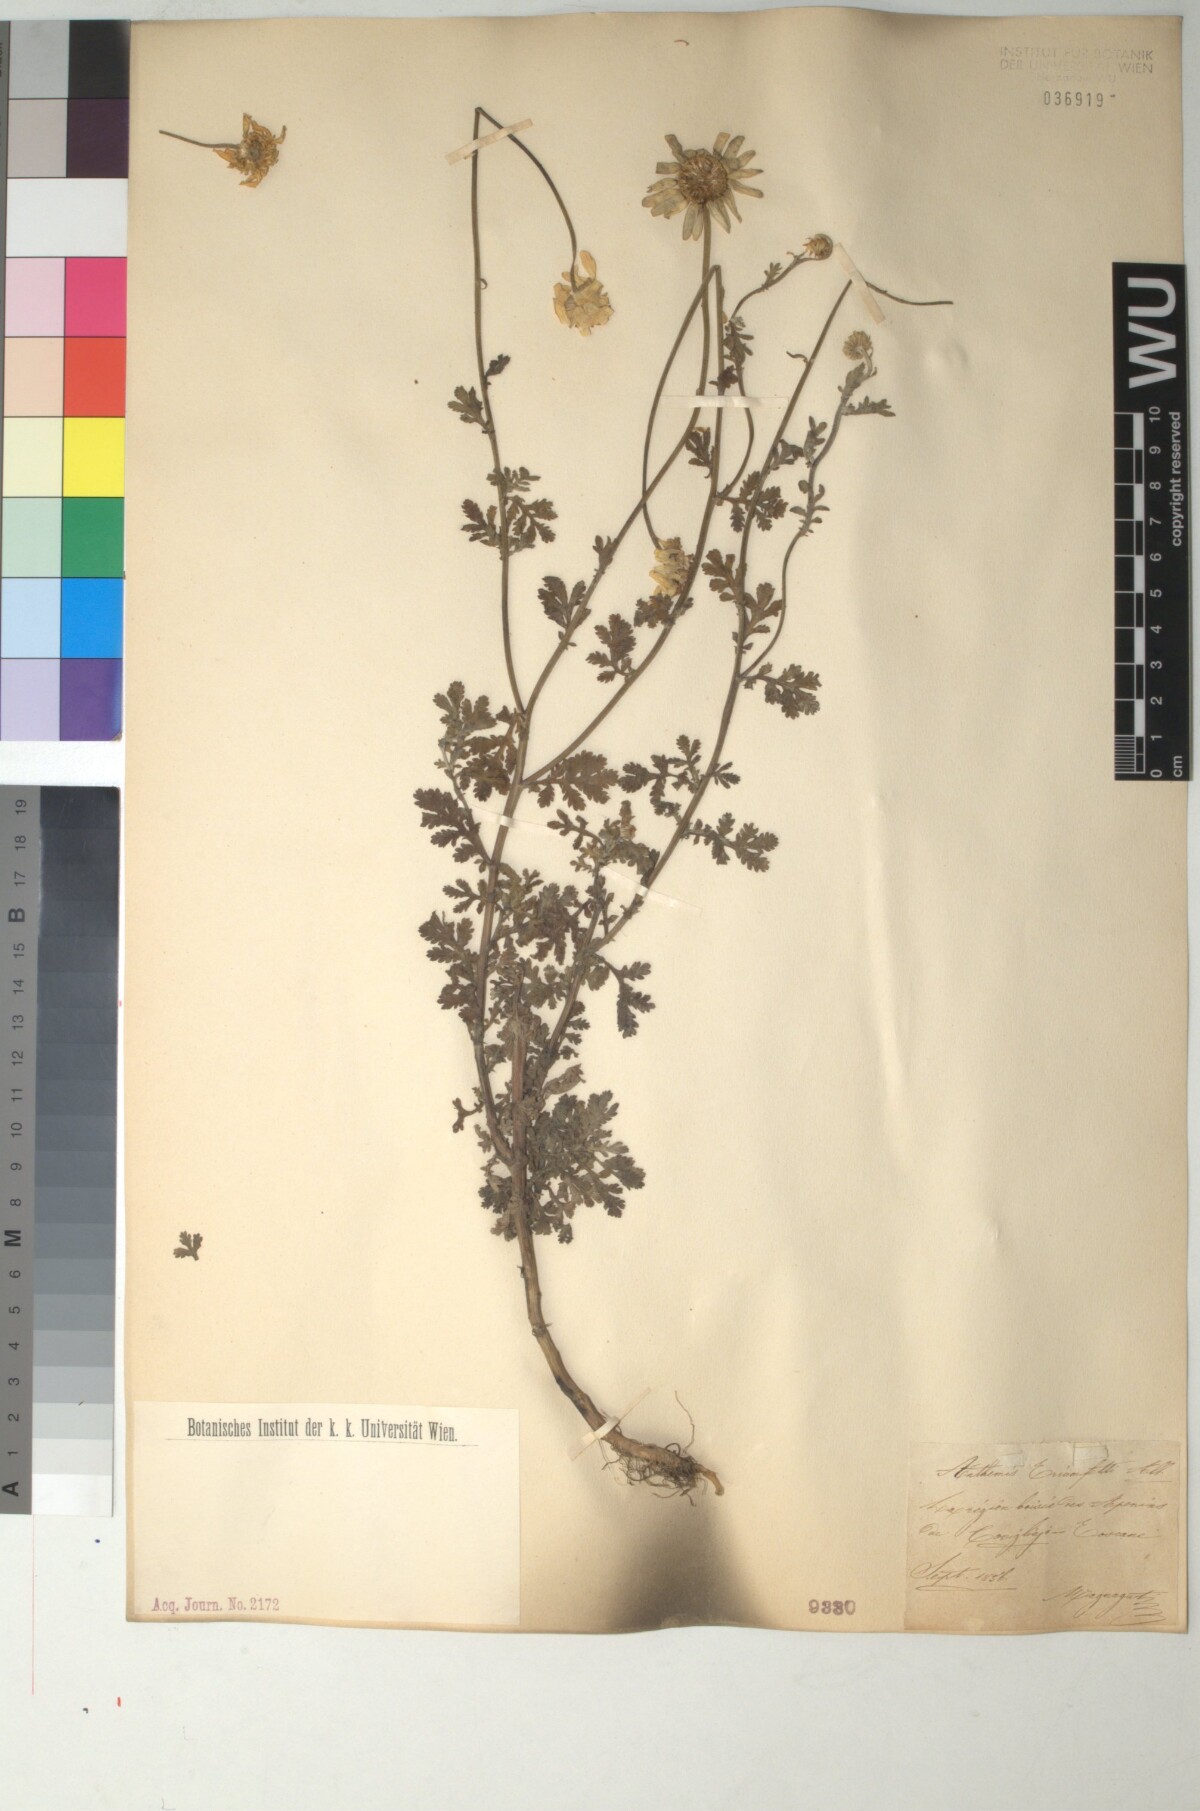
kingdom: Plantae
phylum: Tracheophyta
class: Magnoliopsida
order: Asterales
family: Asteraceae
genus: Cota
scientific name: Cota triumfetti
